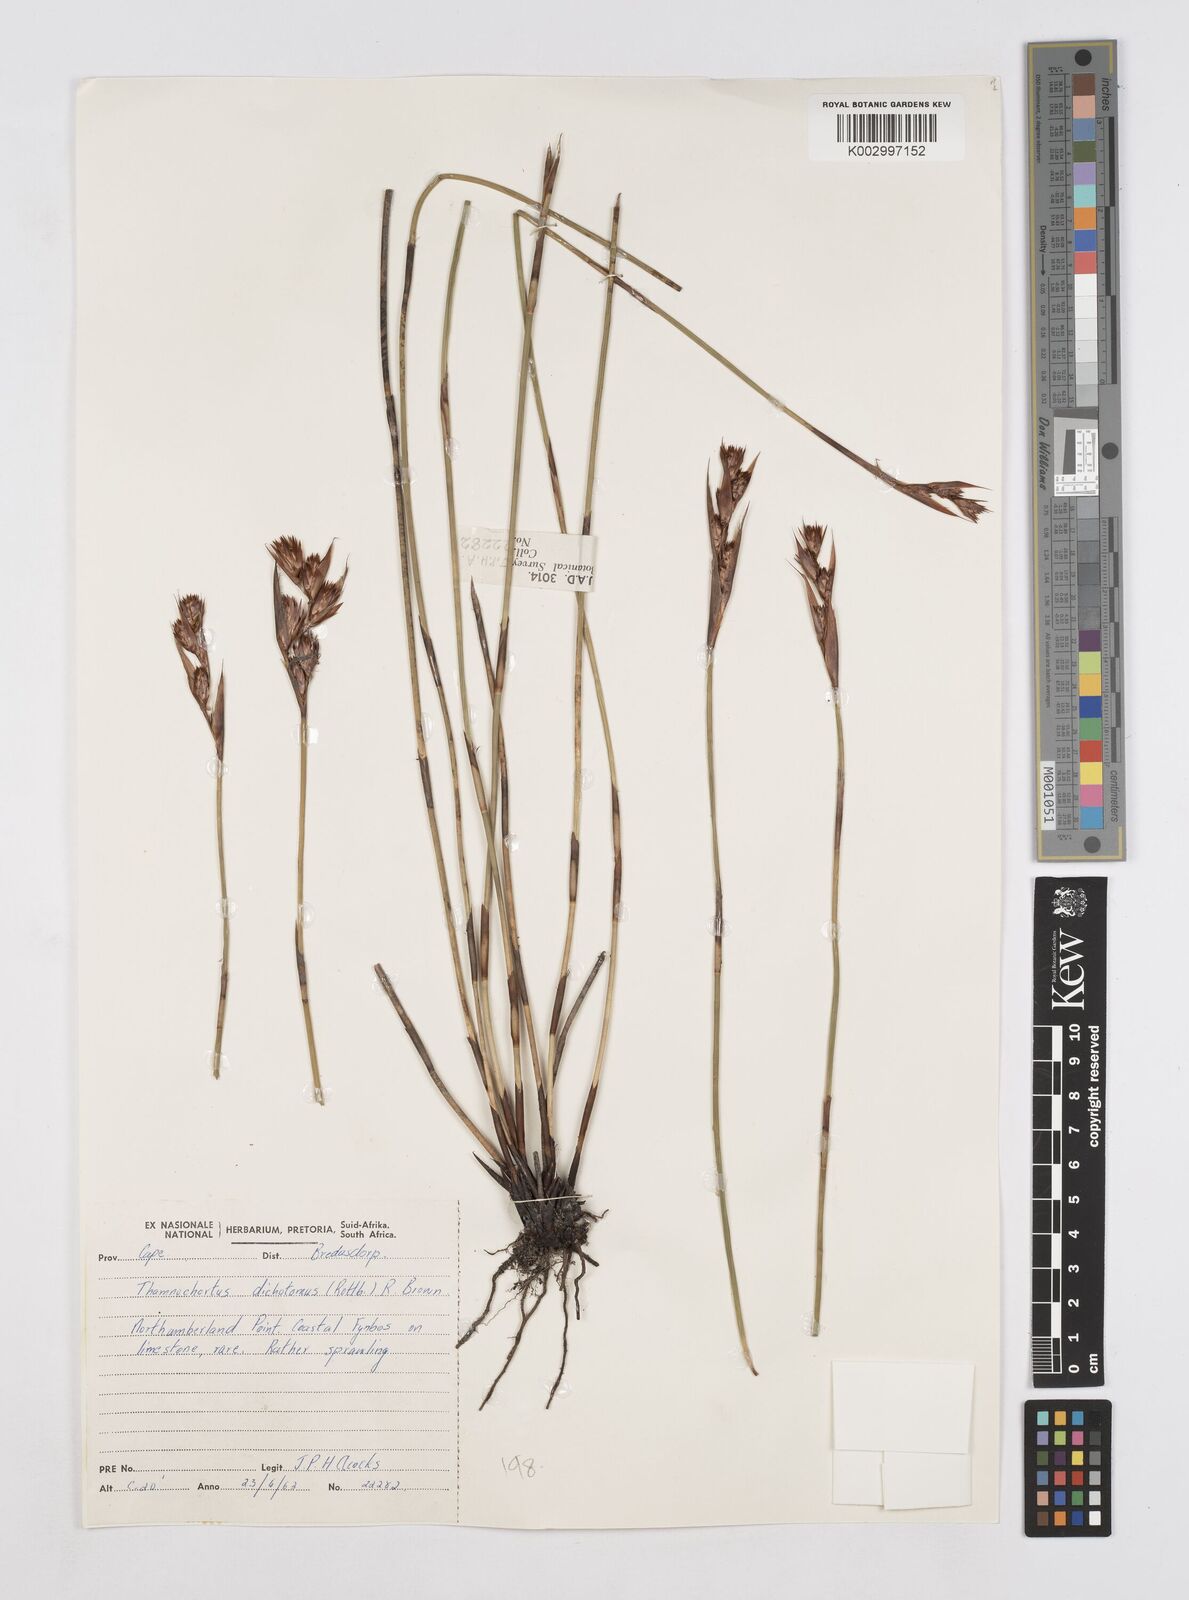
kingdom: Plantae
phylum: Tracheophyta
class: Liliopsida
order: Poales
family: Restionaceae
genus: Thamnochortus
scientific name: Thamnochortus paniculatus
